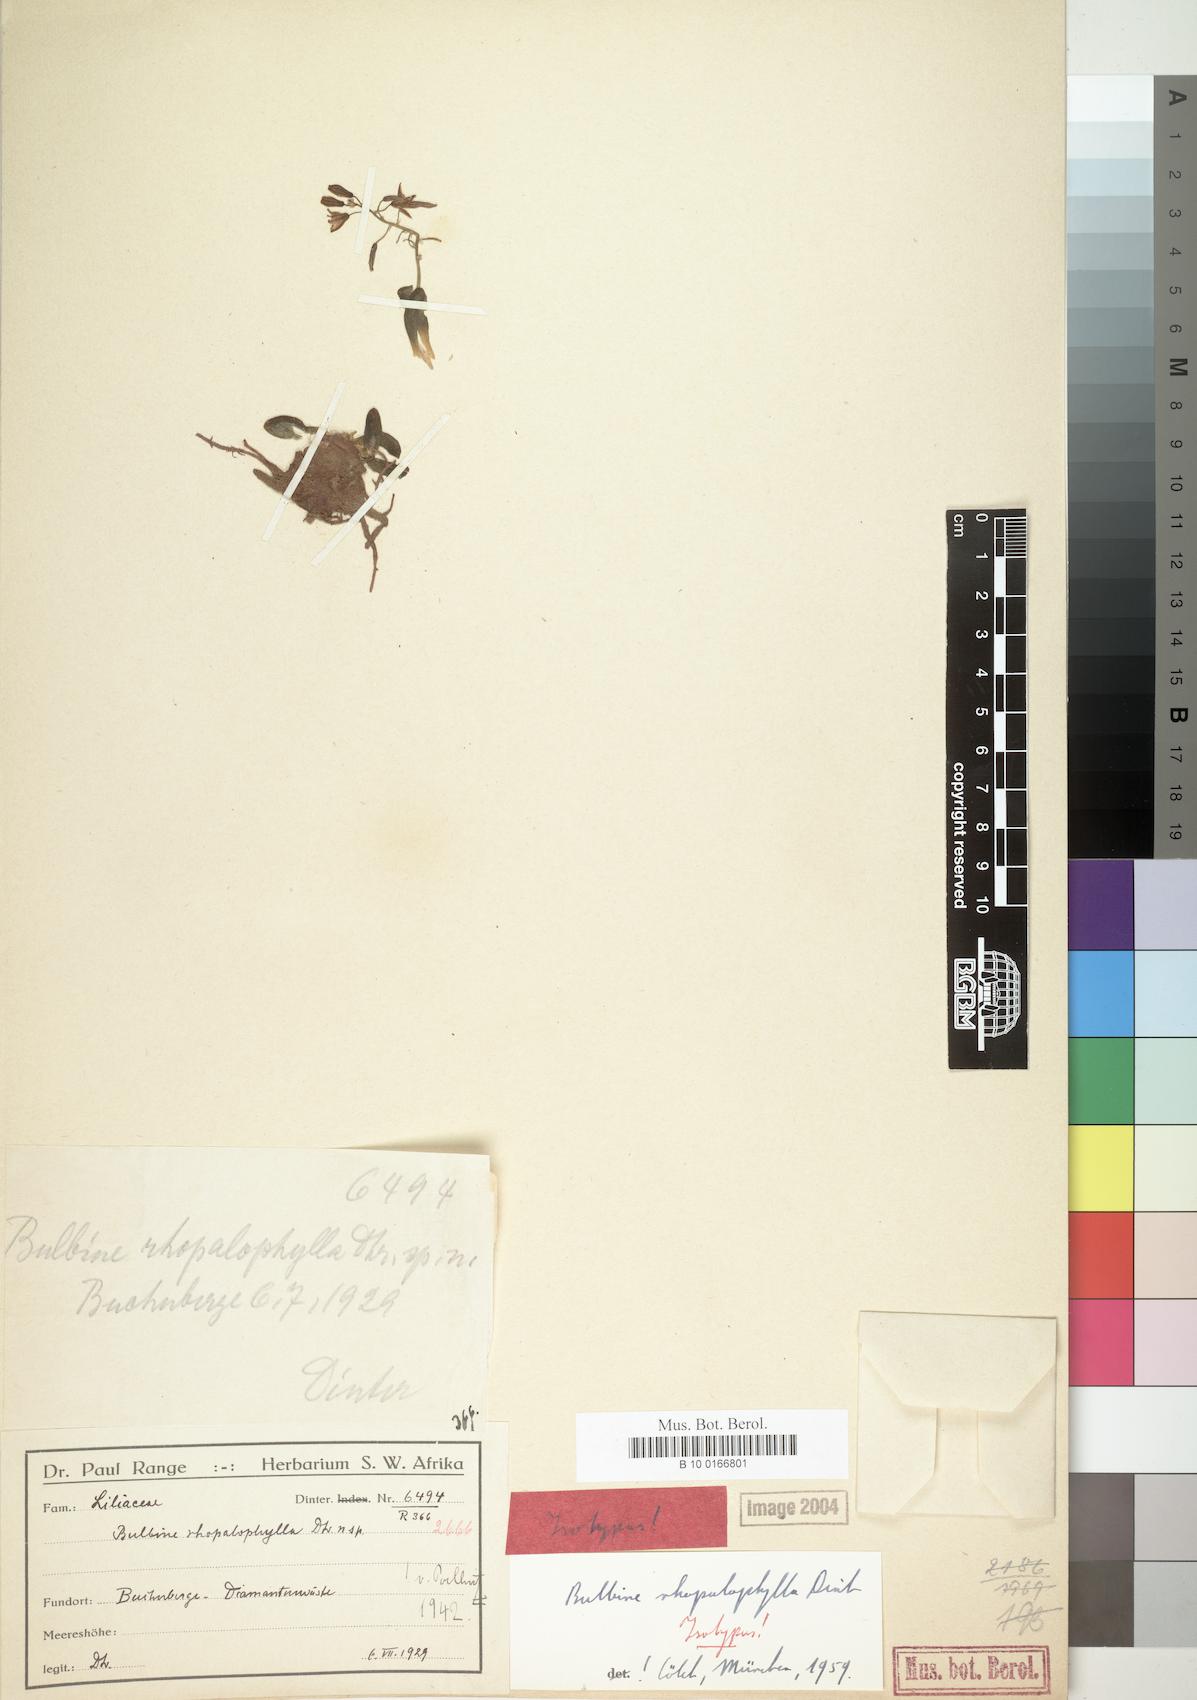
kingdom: Plantae
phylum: Tracheophyta
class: Liliopsida
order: Asparagales
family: Asphodelaceae
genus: Bulbine
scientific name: Bulbine rhopalophylla
